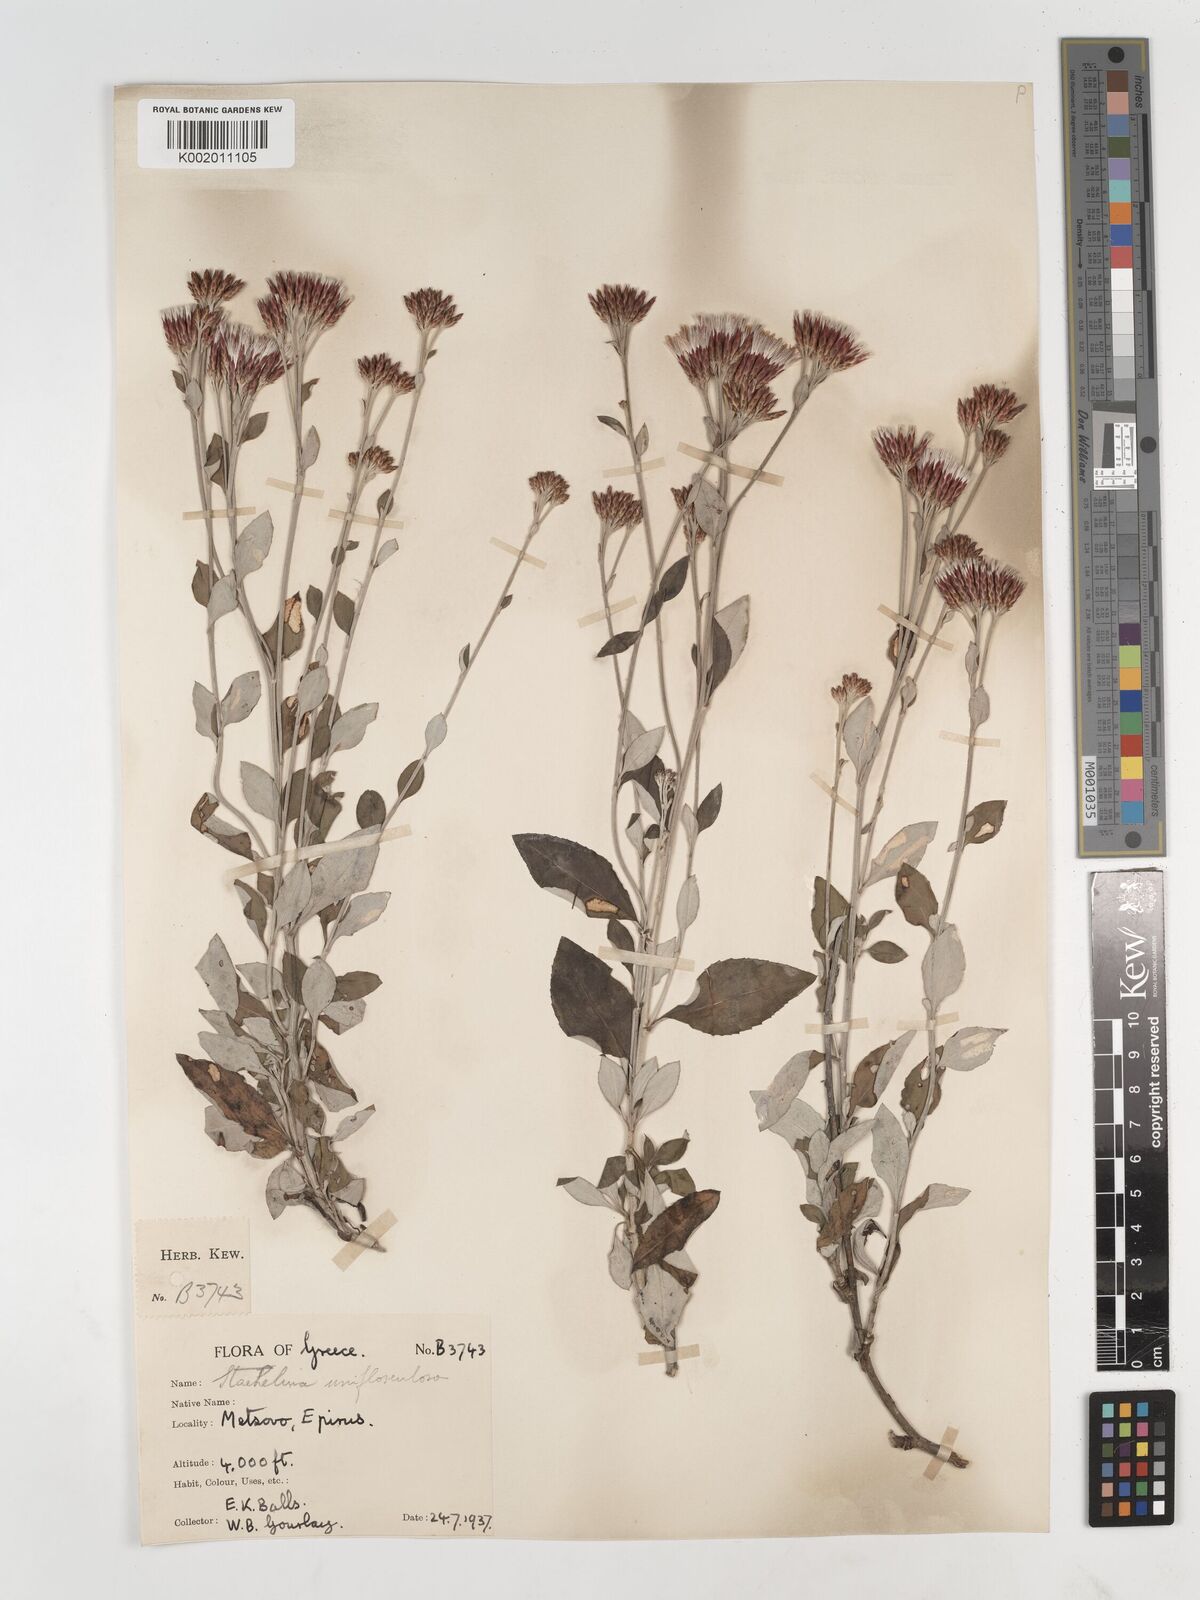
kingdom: Plantae
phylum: Tracheophyta
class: Magnoliopsida
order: Asterales
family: Asteraceae
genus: Staehelina
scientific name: Staehelina uniflosculosa
